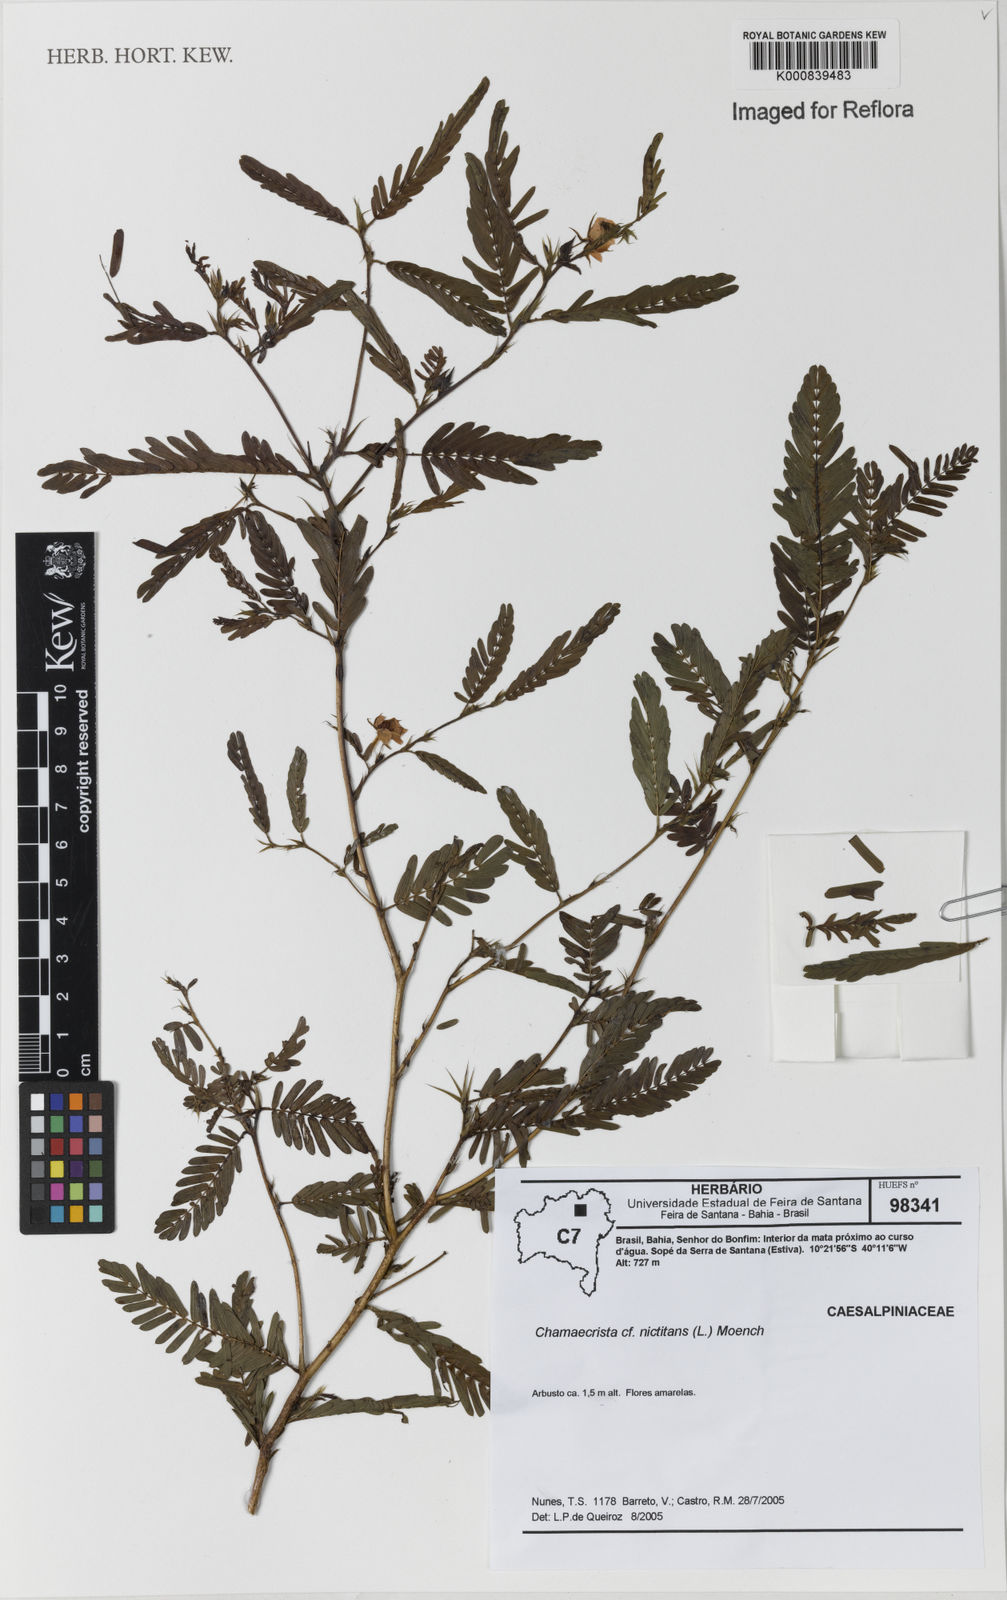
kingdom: Plantae
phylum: Tracheophyta
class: Magnoliopsida
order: Fabales
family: Fabaceae
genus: Chamaecrista
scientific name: Chamaecrista nictitans
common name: Sensitive cassia
